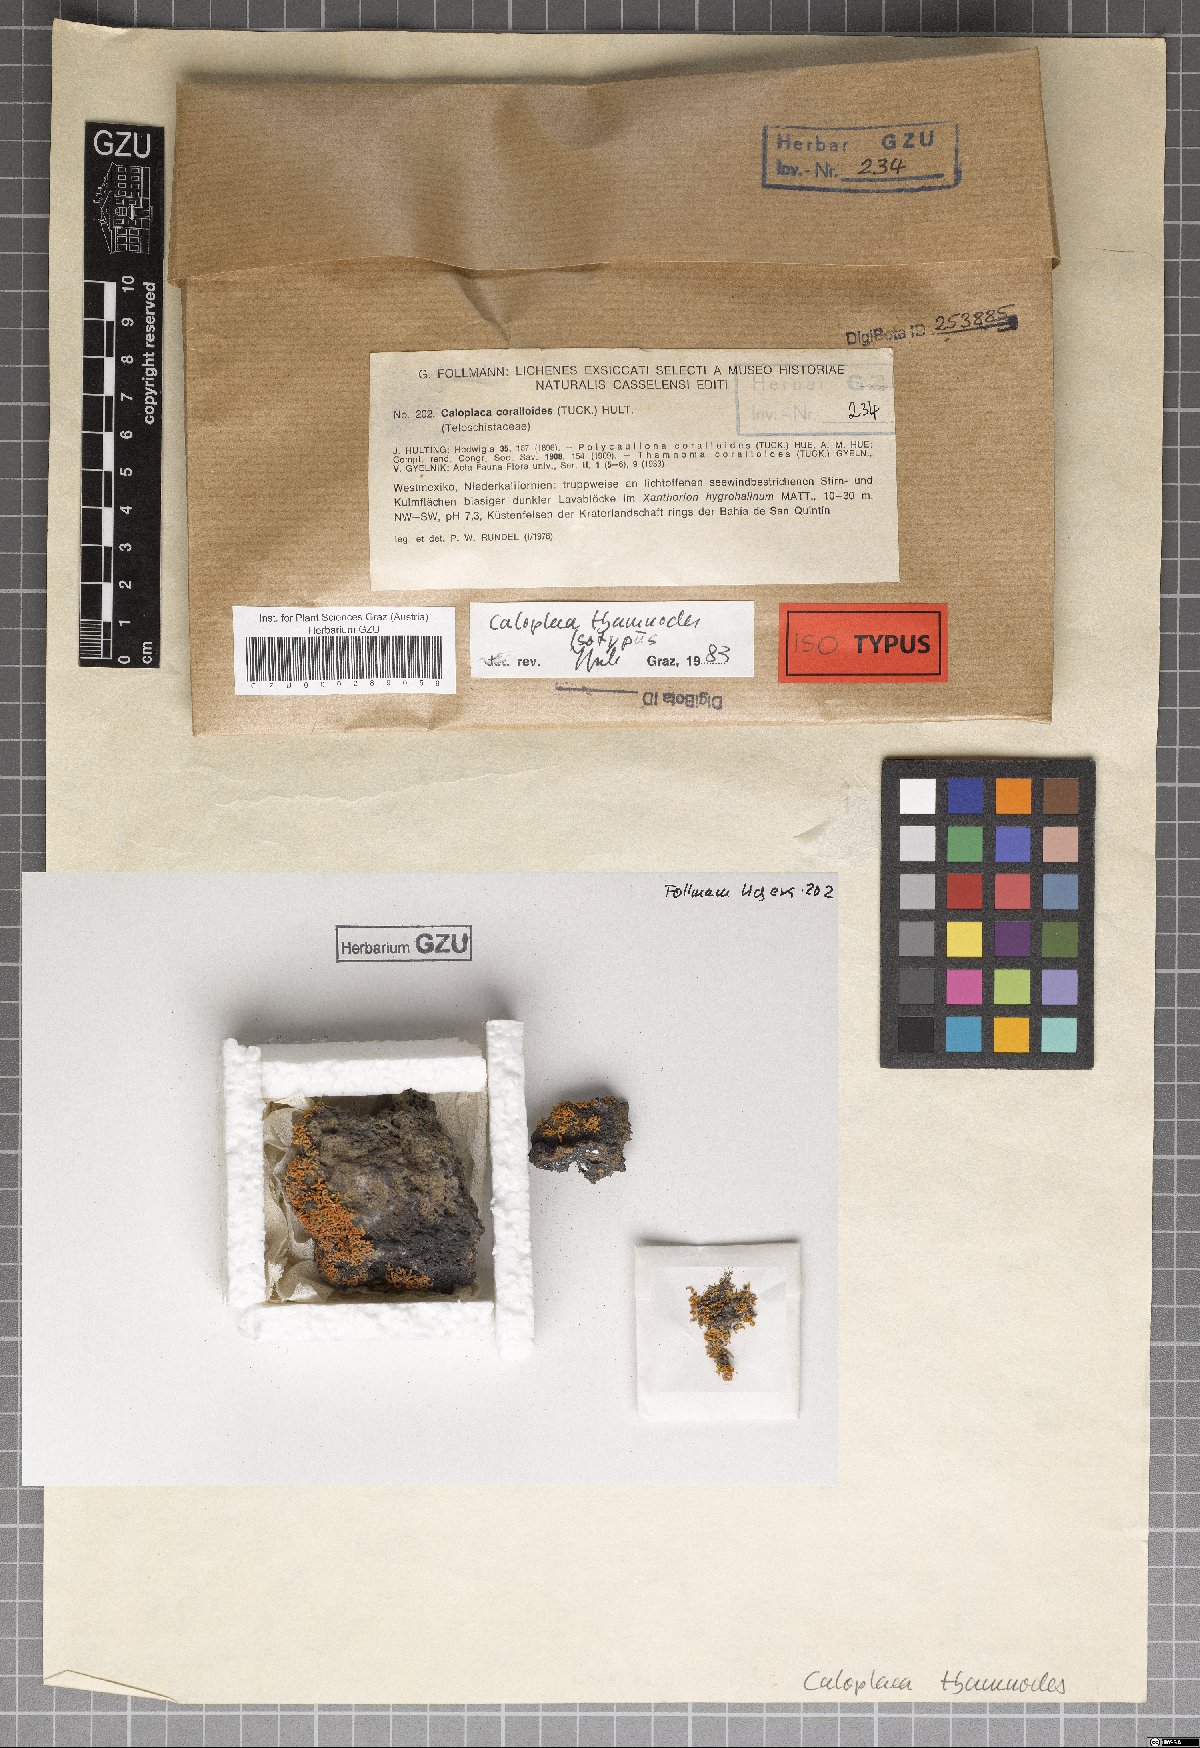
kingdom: Fungi
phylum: Ascomycota
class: Lecanoromycetes
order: Teloschistales
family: Teloschistaceae
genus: Polycauliona
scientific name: Polycauliona thamnodes
